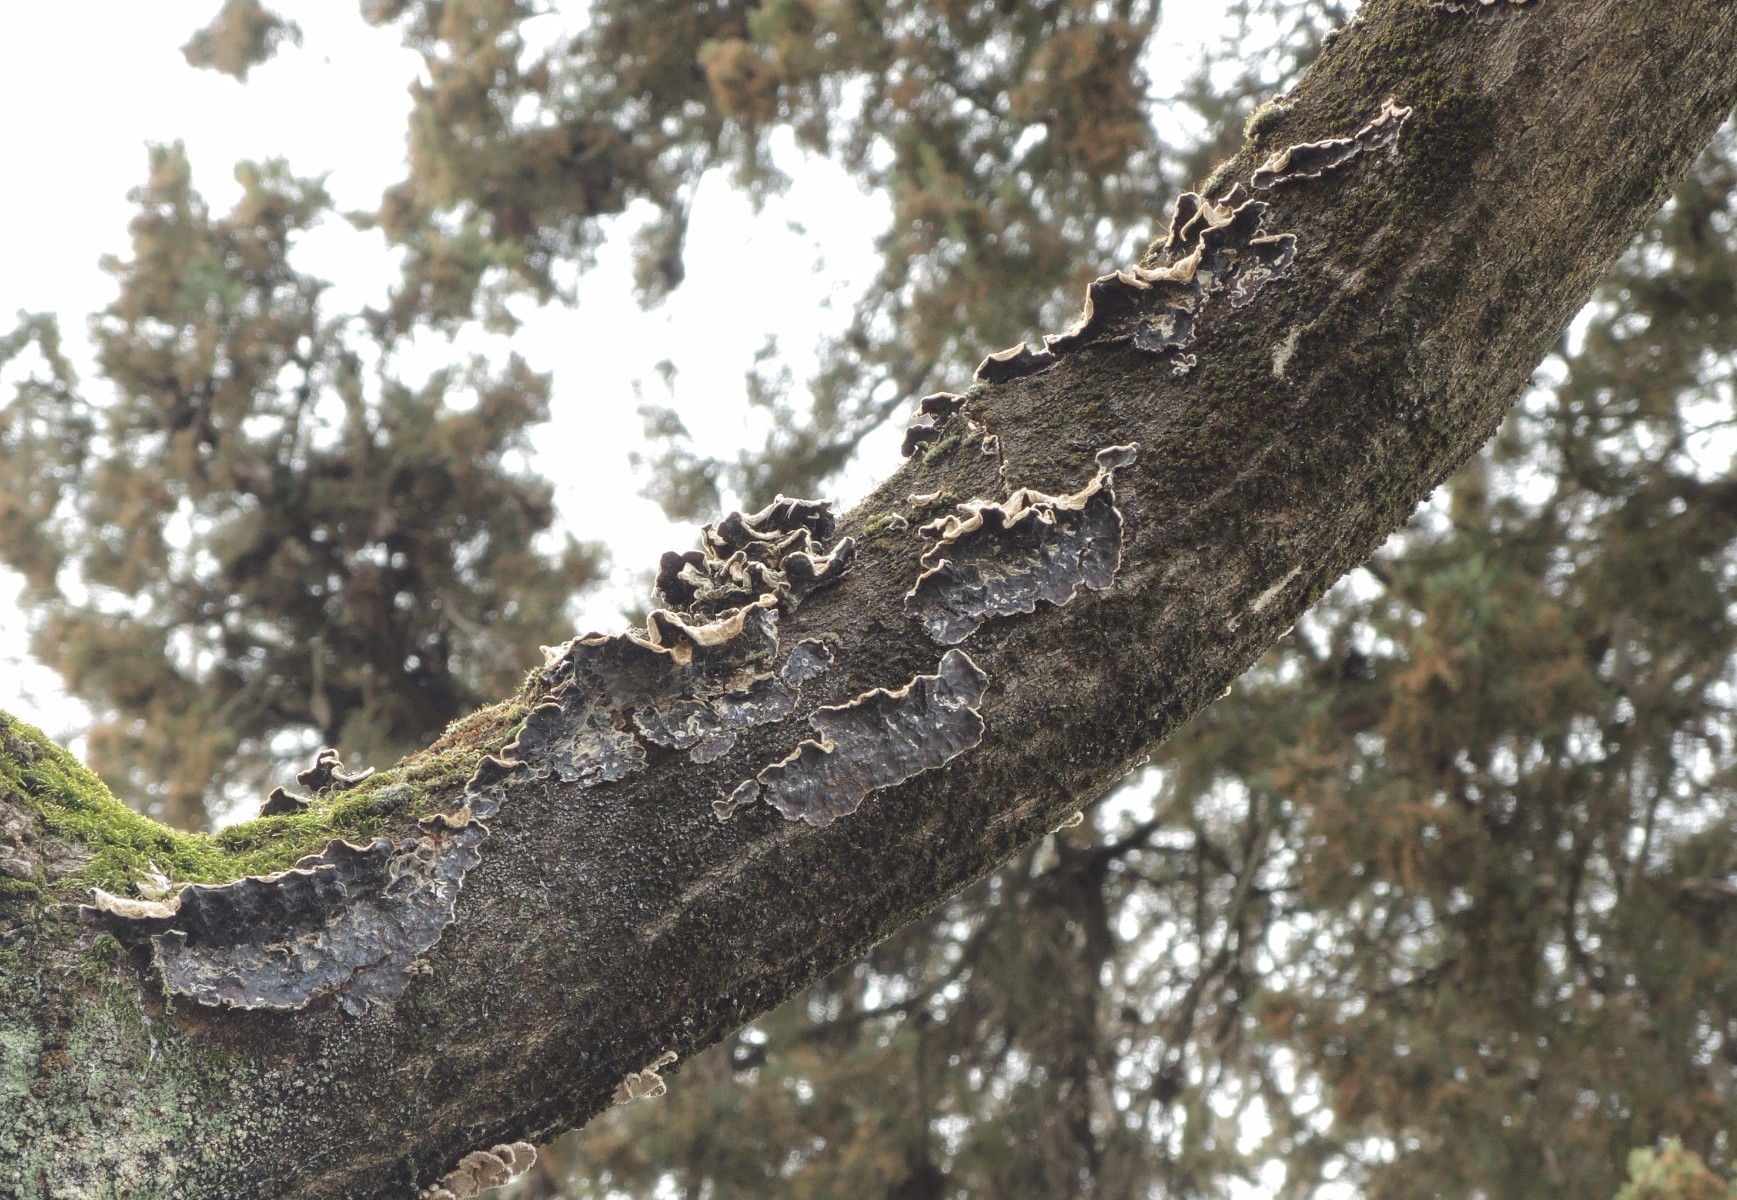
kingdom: Fungi
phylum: Basidiomycota
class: Agaricomycetes
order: Auriculariales
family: Auriculariaceae
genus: Auricularia
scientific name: Auricularia mesenterica
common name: håret judasøre
